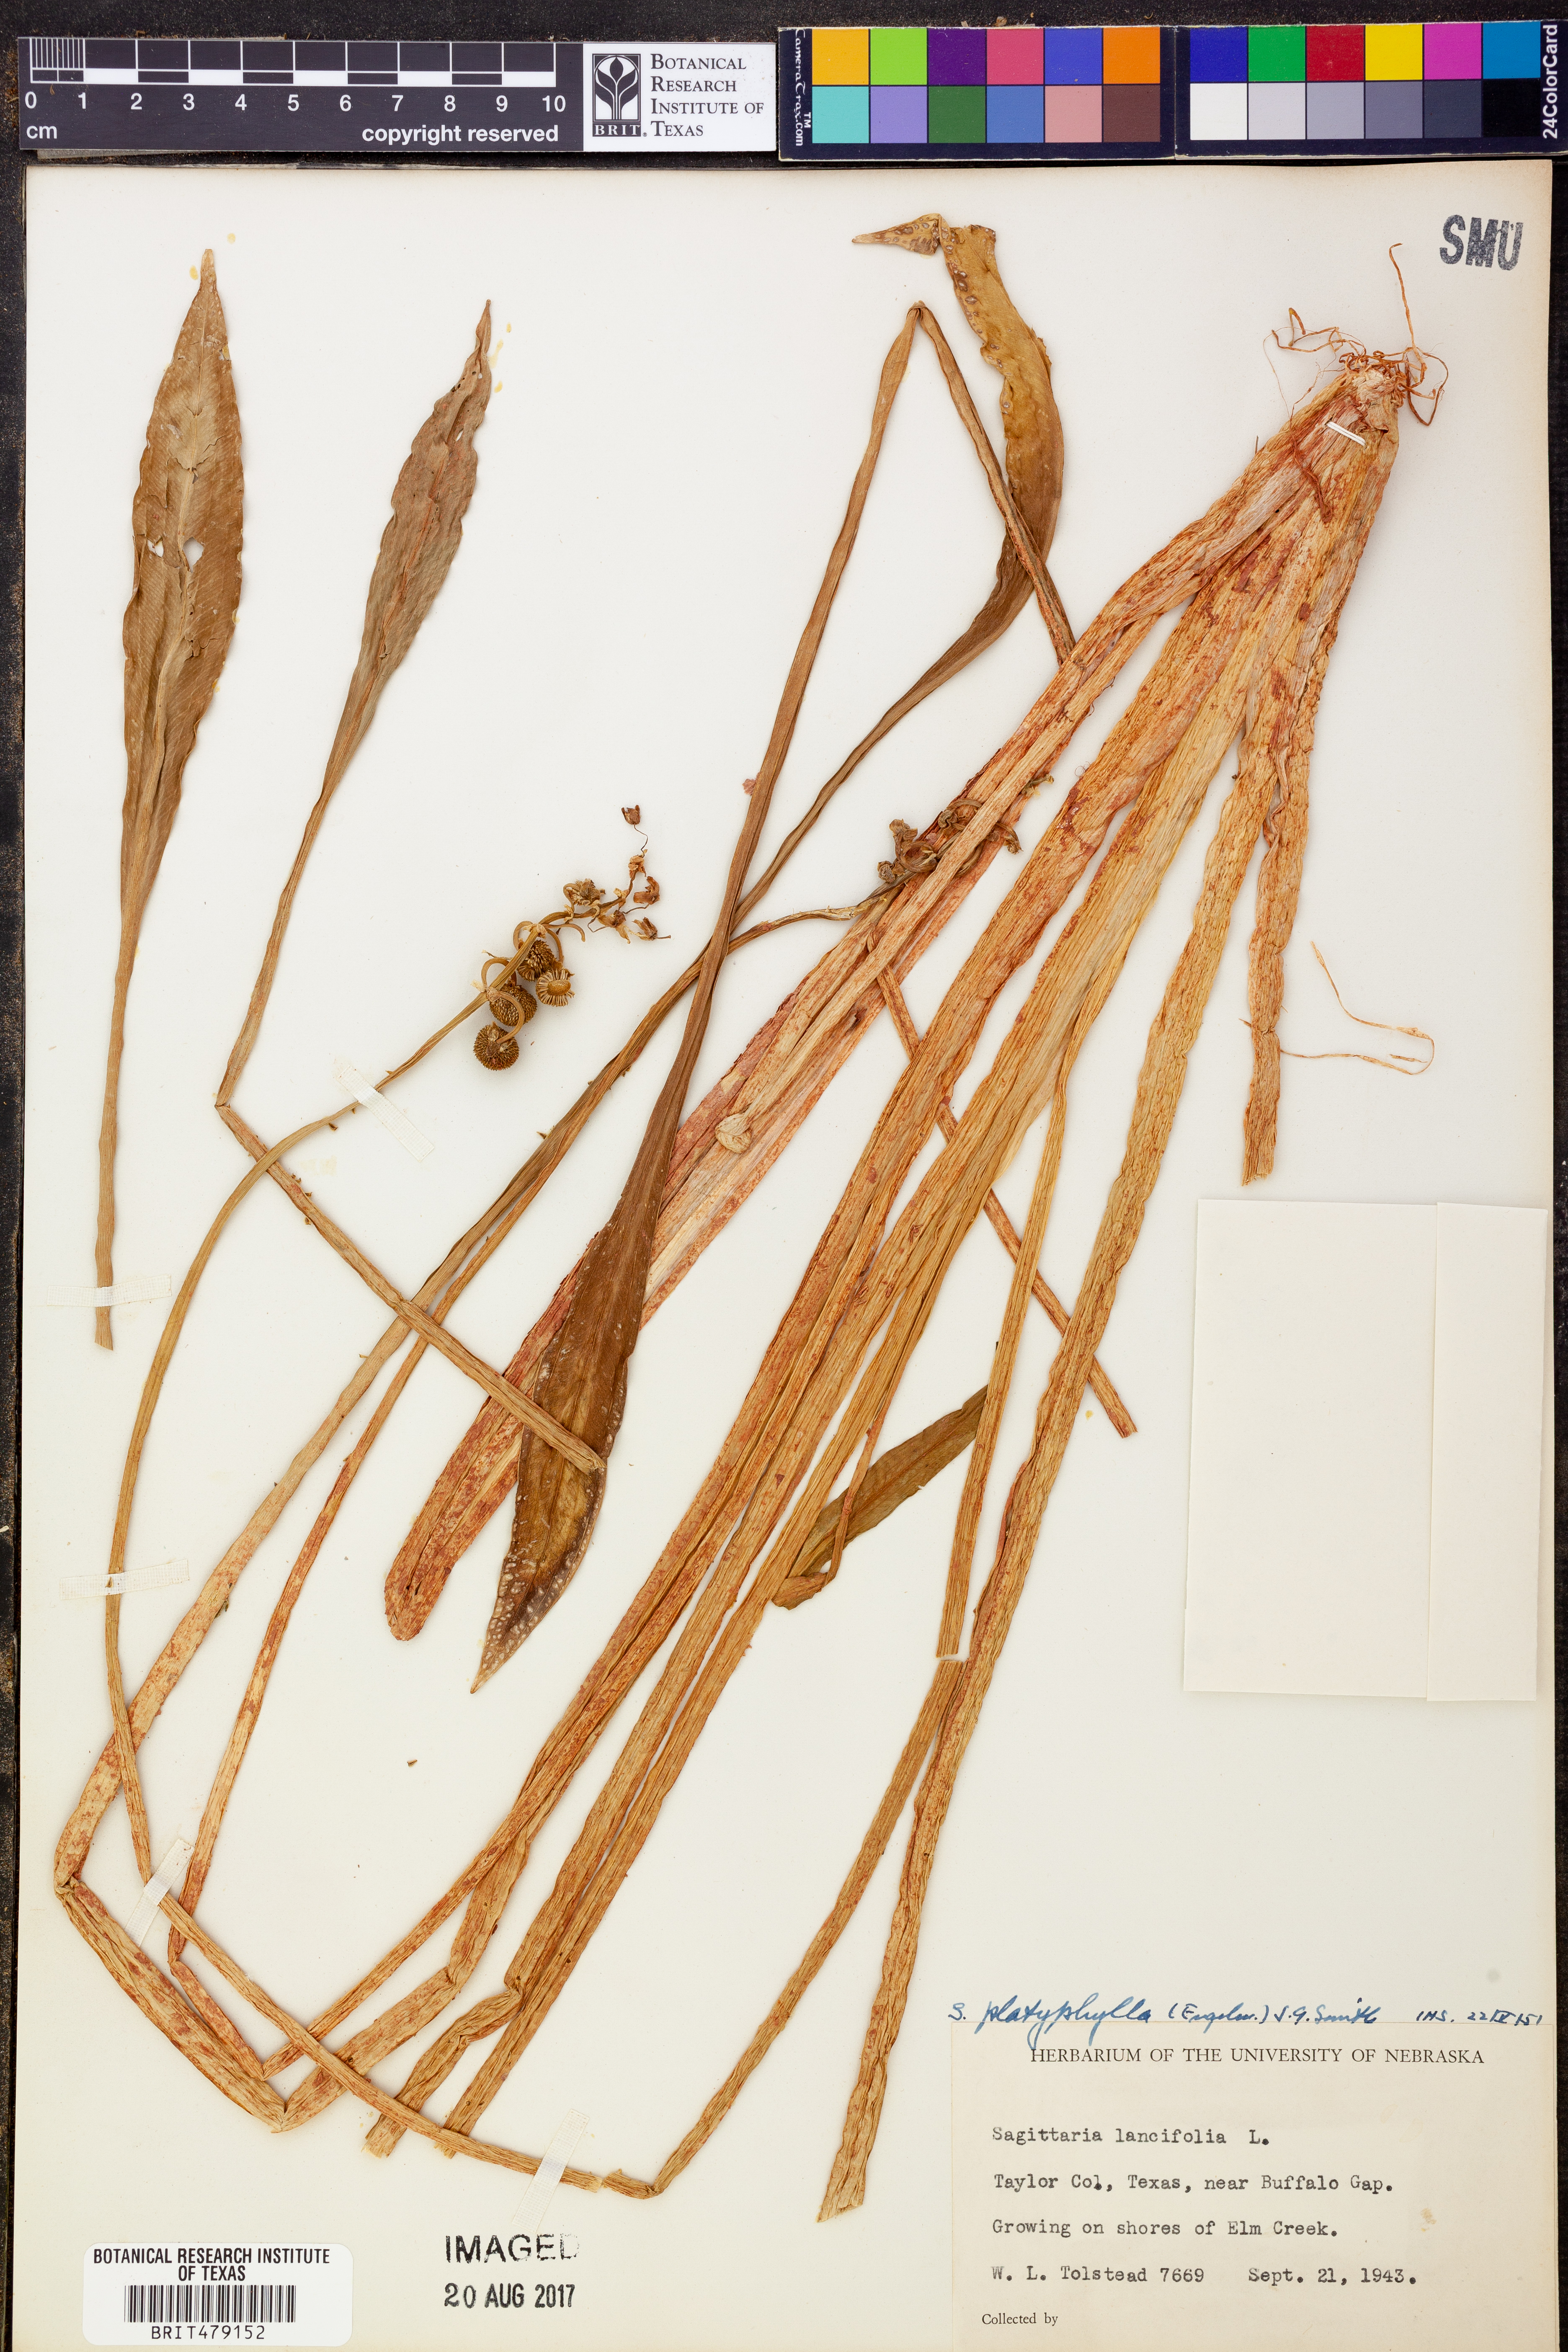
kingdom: Plantae
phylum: Tracheophyta
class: Liliopsida
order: Alismatales
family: Alismataceae
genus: Sagittaria
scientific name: Sagittaria platyphylla
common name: Broad-leaf arrowhead
